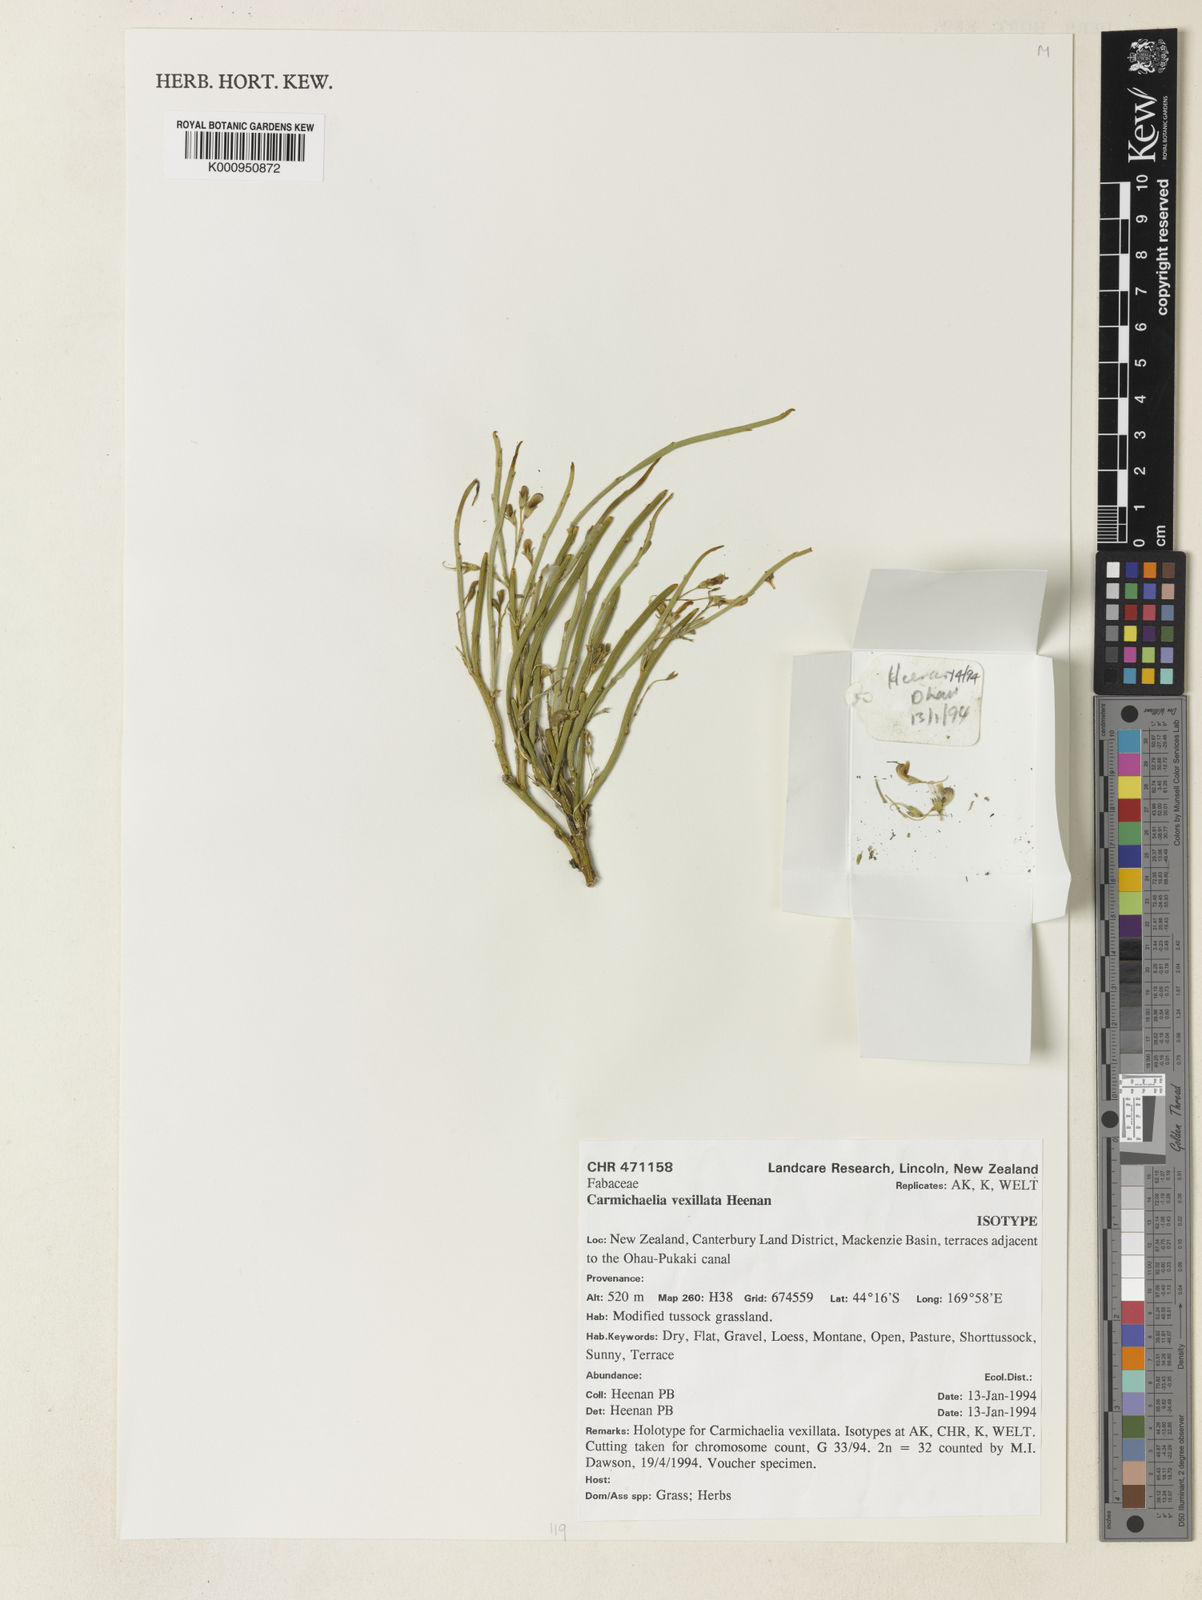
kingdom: Plantae
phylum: Tracheophyta
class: Magnoliopsida
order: Fabales
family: Fabaceae
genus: Carmichaelia
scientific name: Carmichaelia vexillata
